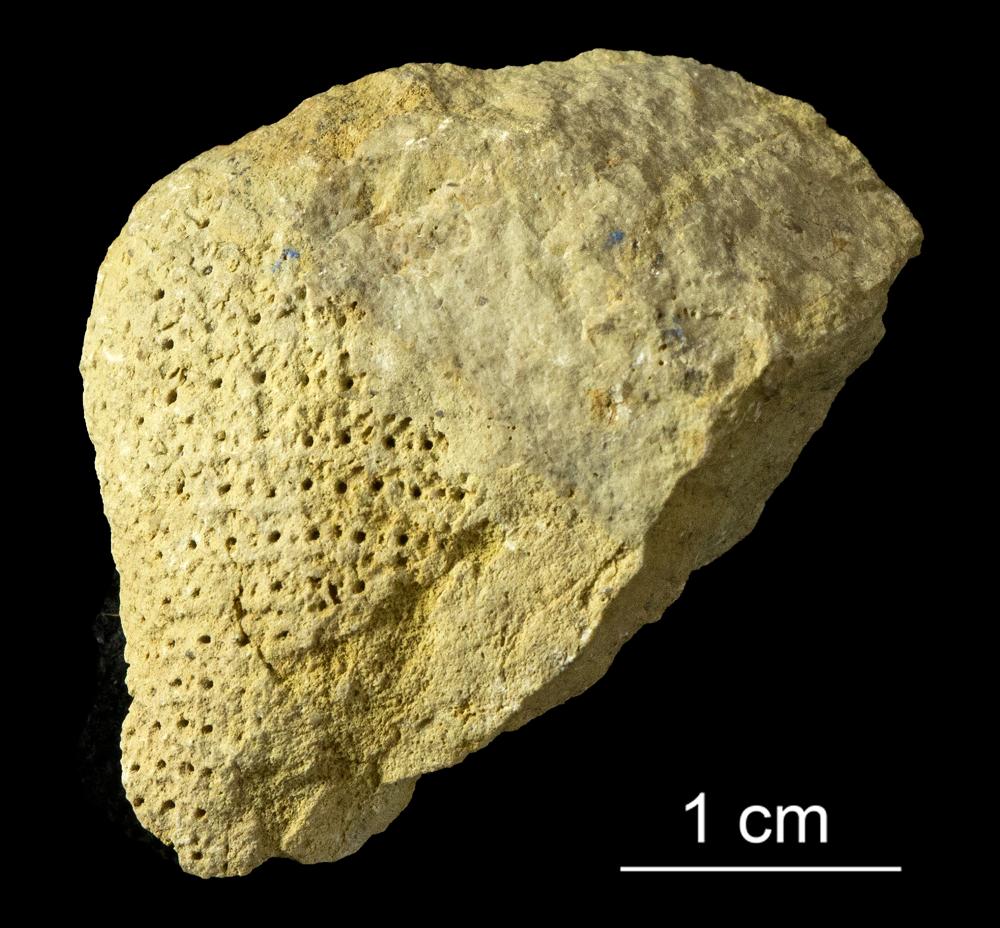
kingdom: Plantae
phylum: Chlorophyta
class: Chlorophyceae
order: Receptaculitales
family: Receptaculitaceae
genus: Ischadites
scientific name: Ischadites
